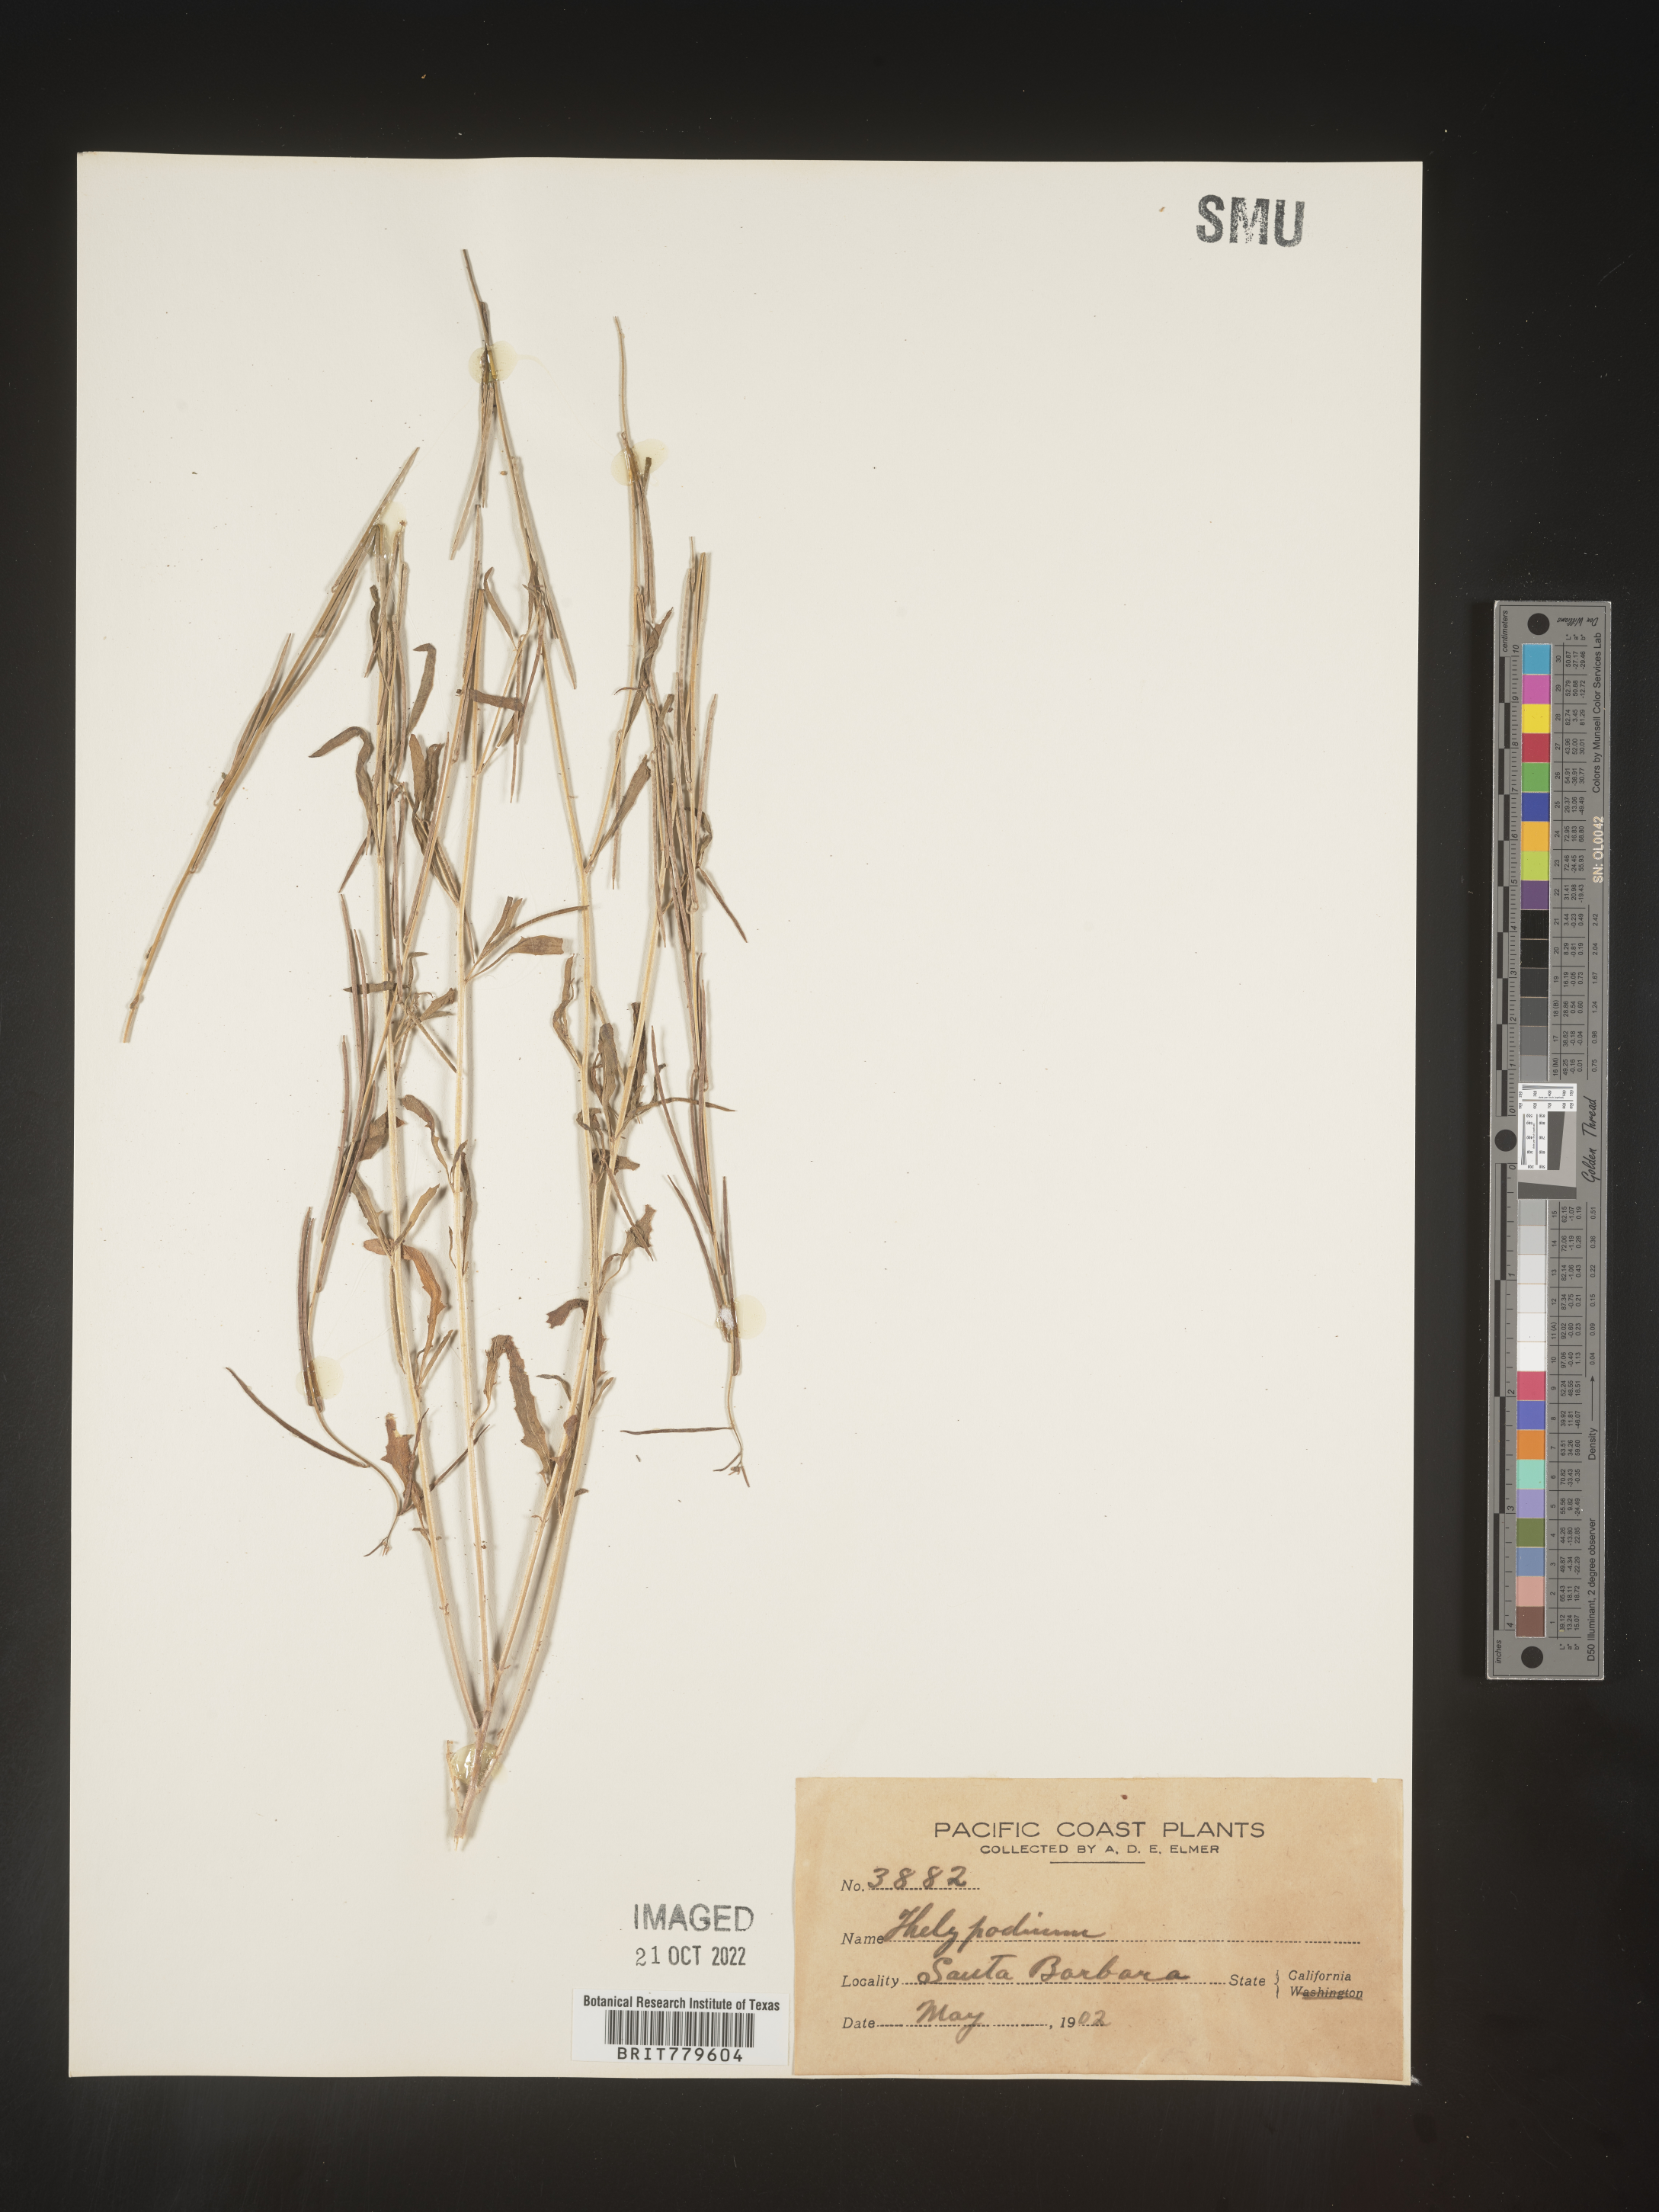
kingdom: Plantae
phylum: Tracheophyta
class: Magnoliopsida
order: Brassicales
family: Brassicaceae
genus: Thelypodium
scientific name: Thelypodium
